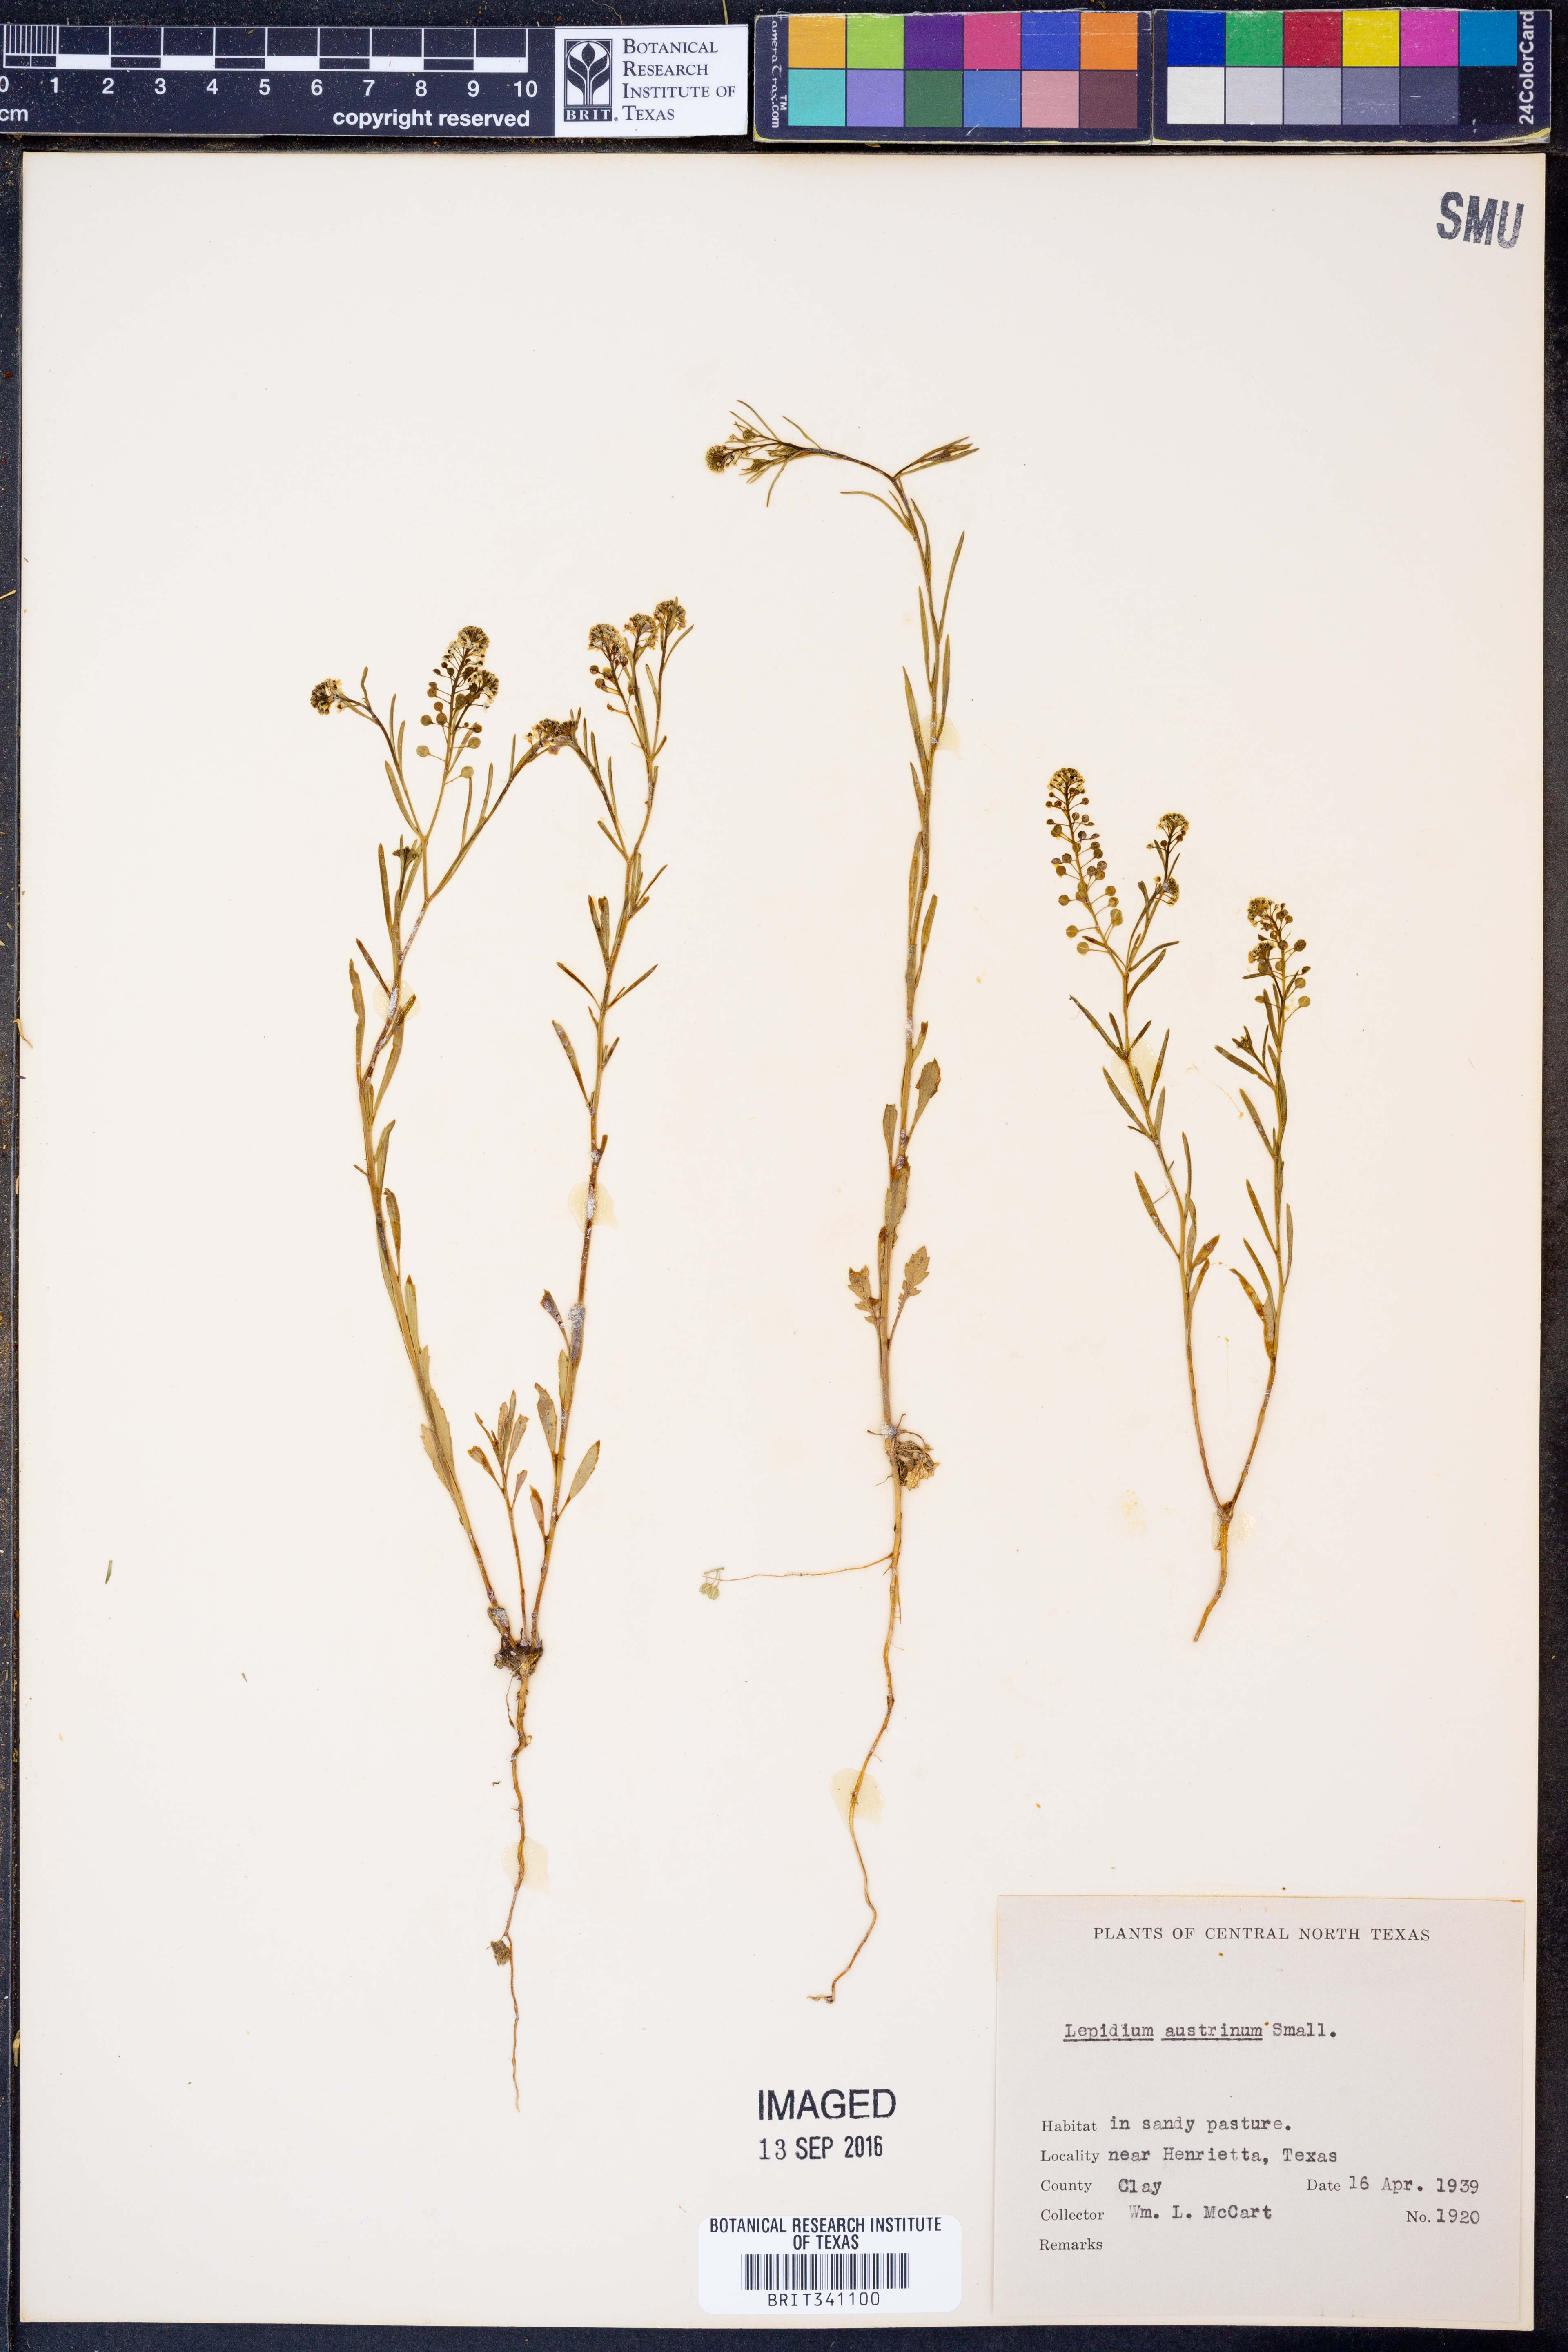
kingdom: Plantae
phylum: Tracheophyta
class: Magnoliopsida
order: Brassicales
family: Brassicaceae
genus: Lepidium
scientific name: Lepidium austrinum
